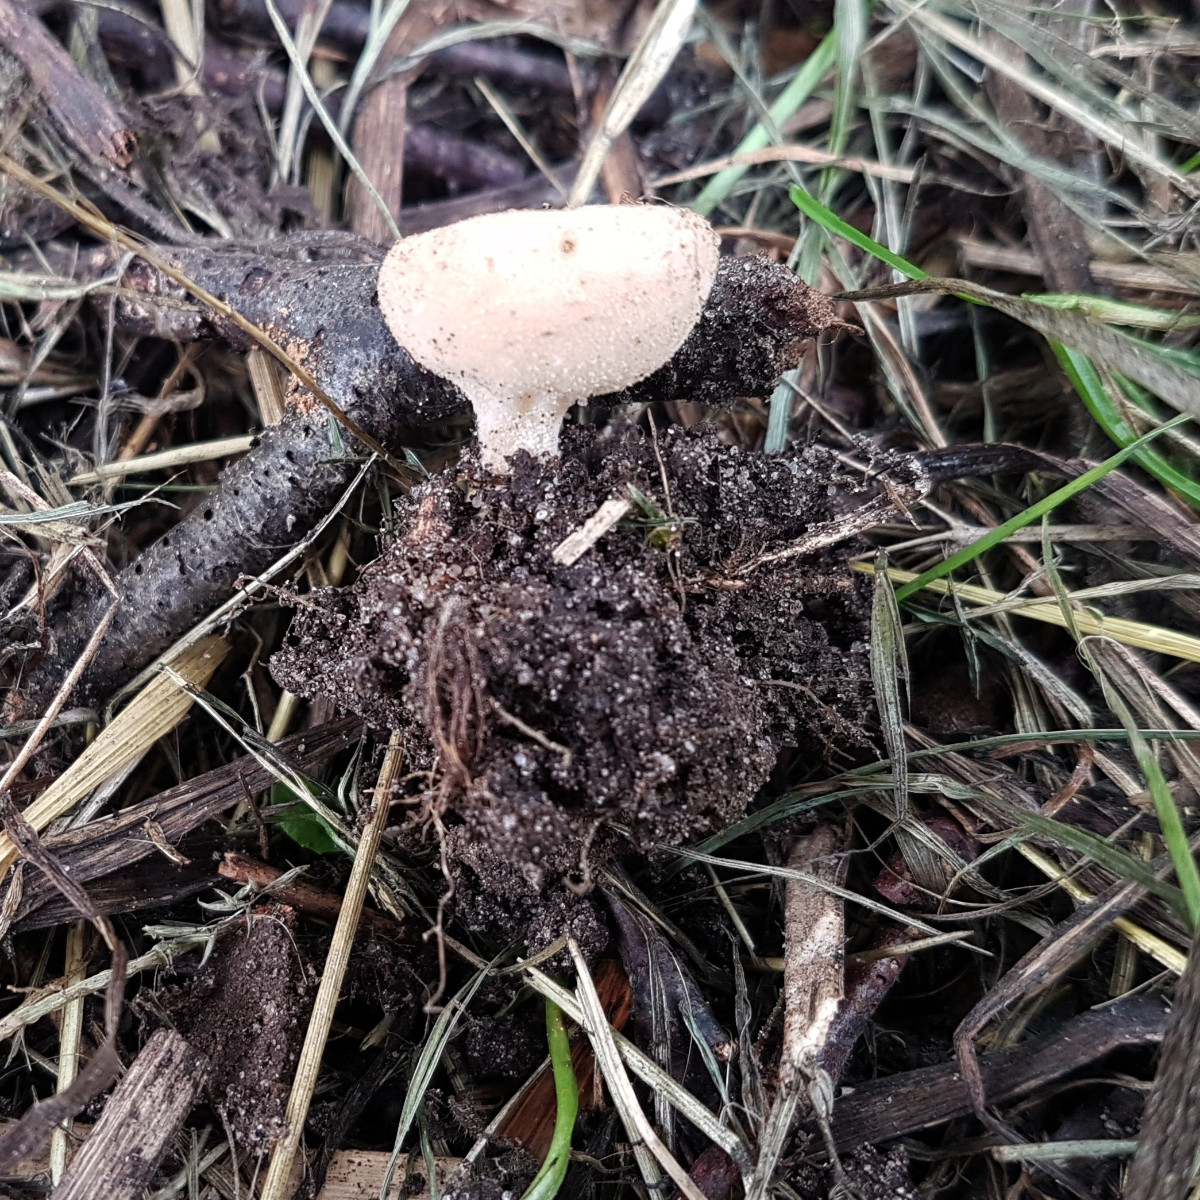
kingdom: Fungi
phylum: Ascomycota
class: Pezizomycetes
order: Pezizales
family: Pyronemataceae
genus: Tarzetta
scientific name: Tarzetta cupularis
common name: gulbrun pokalbæger
